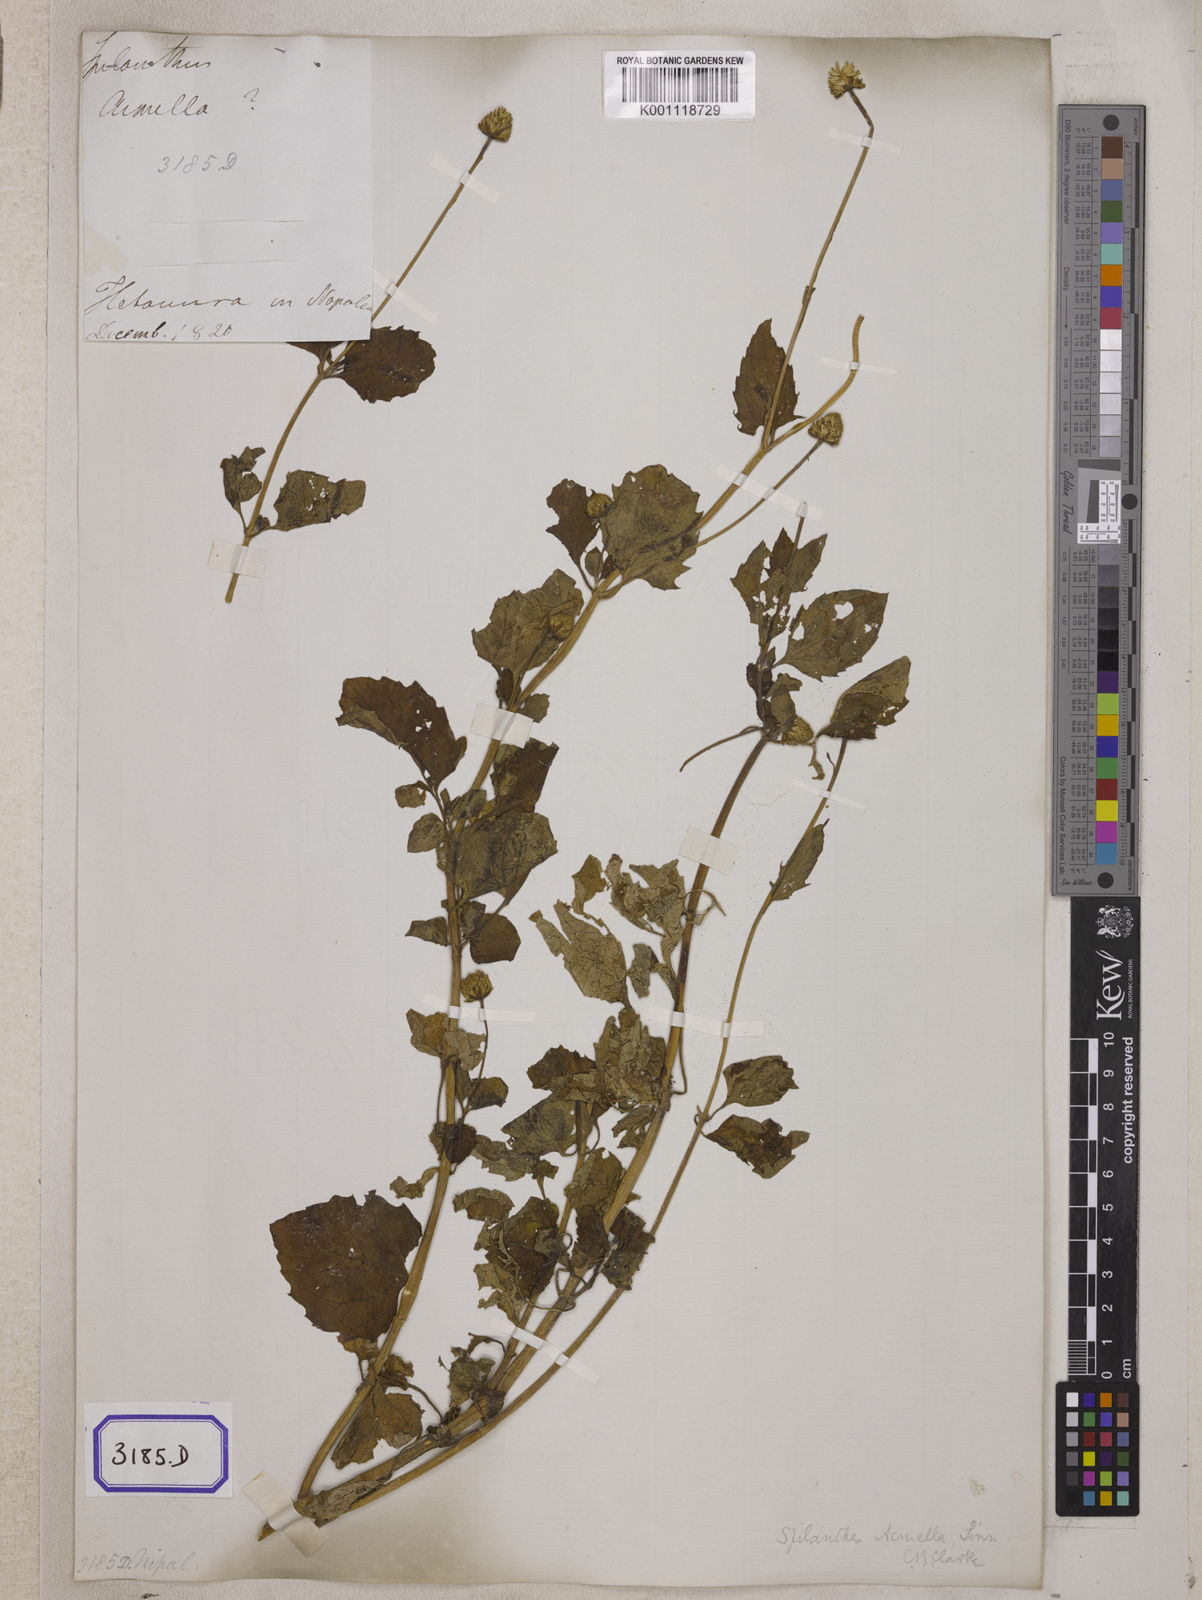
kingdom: Plantae
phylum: Tracheophyta
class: Magnoliopsida
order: Asterales
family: Asteraceae
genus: Blainvillea
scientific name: Blainvillea acmella
